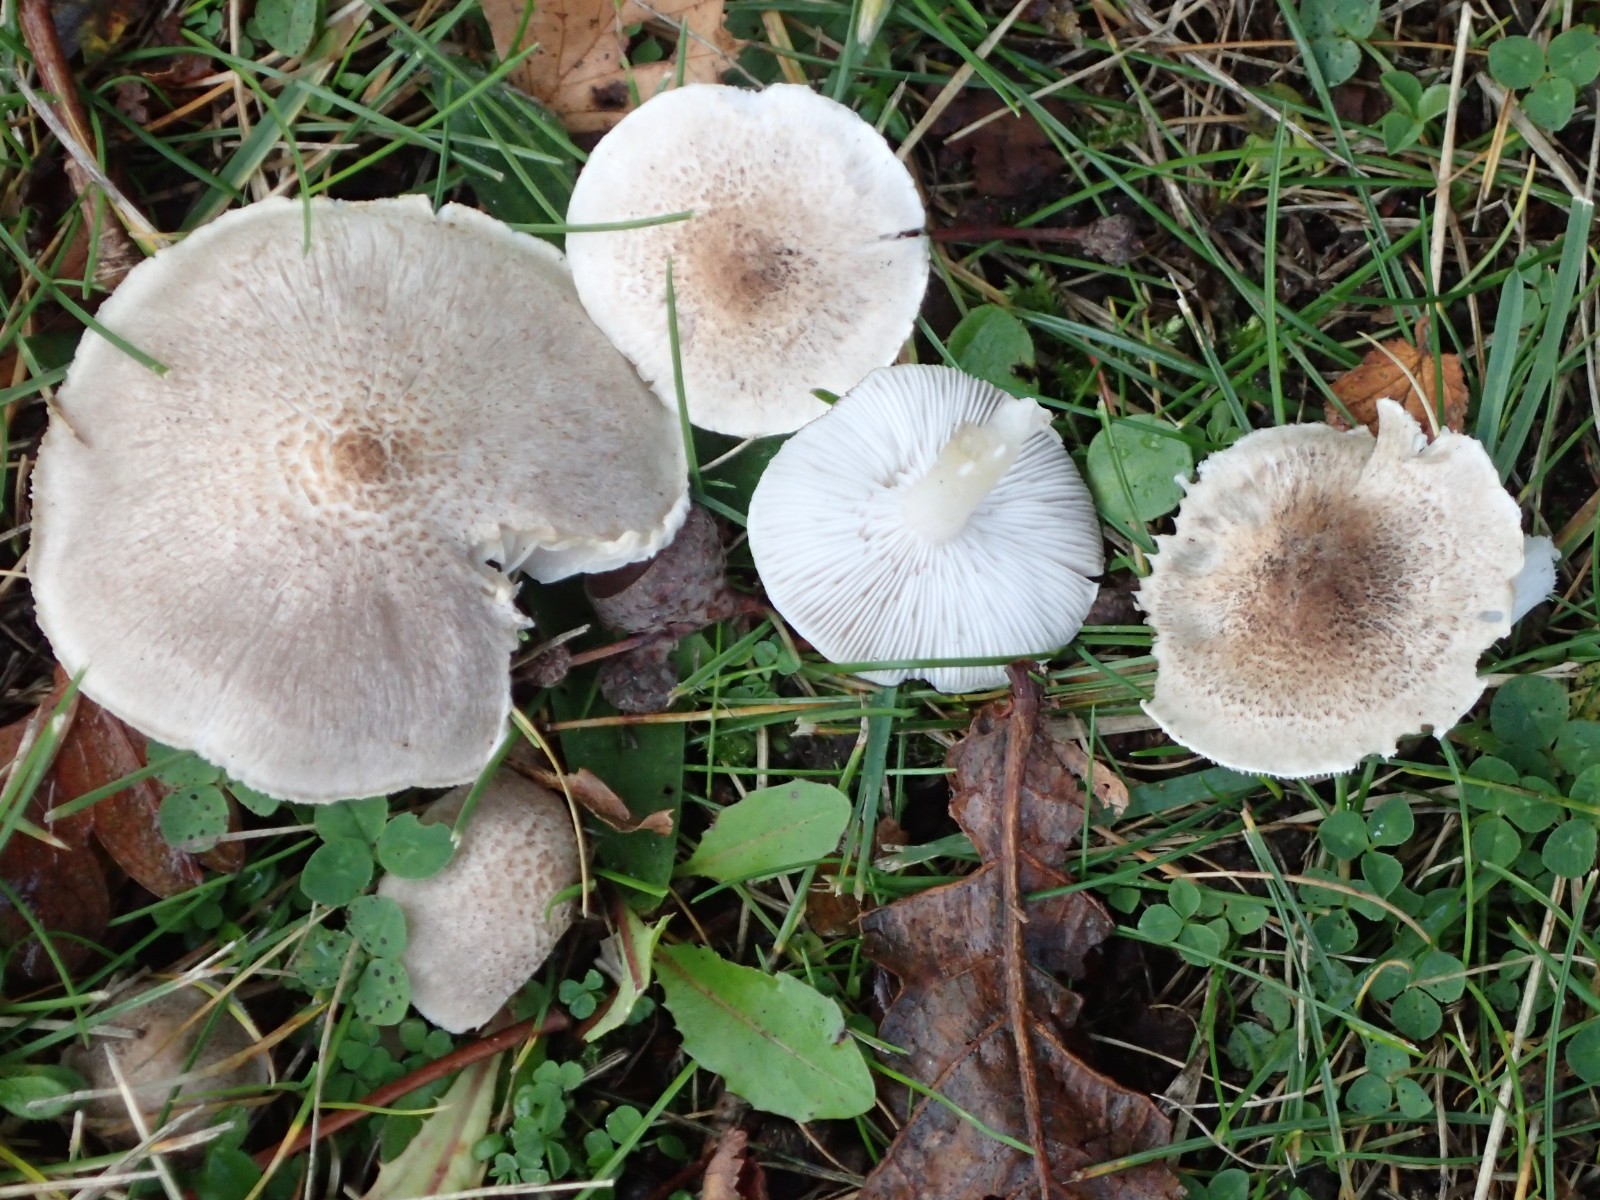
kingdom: Fungi
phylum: Basidiomycota
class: Agaricomycetes
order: Agaricales
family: Tricholomataceae
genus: Tricholoma
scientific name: Tricholoma scalpturatum
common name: gulplettet ridderhat
